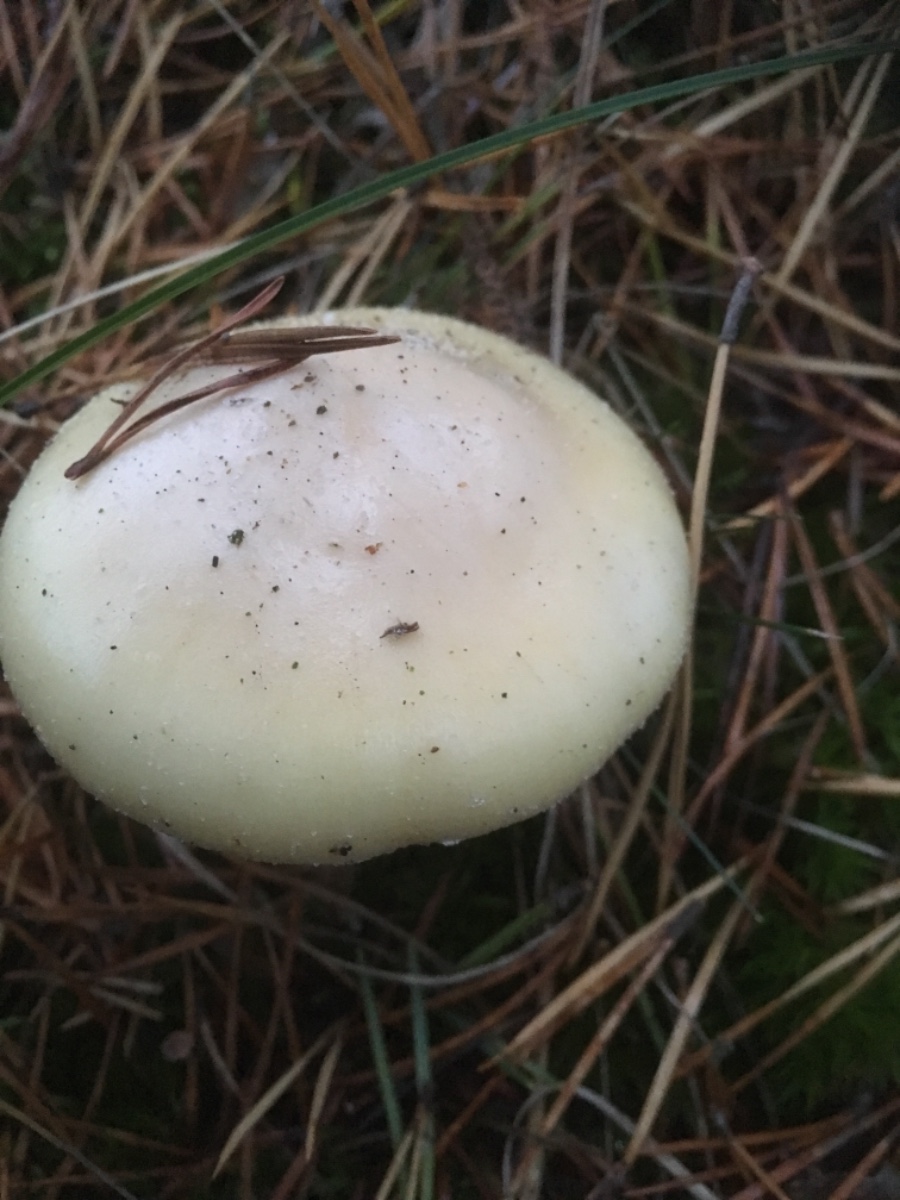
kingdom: Fungi
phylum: Basidiomycota
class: Agaricomycetes
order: Agaricales
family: Amanitaceae
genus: Amanita
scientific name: Amanita gemmata
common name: okkergul fluesvamp
